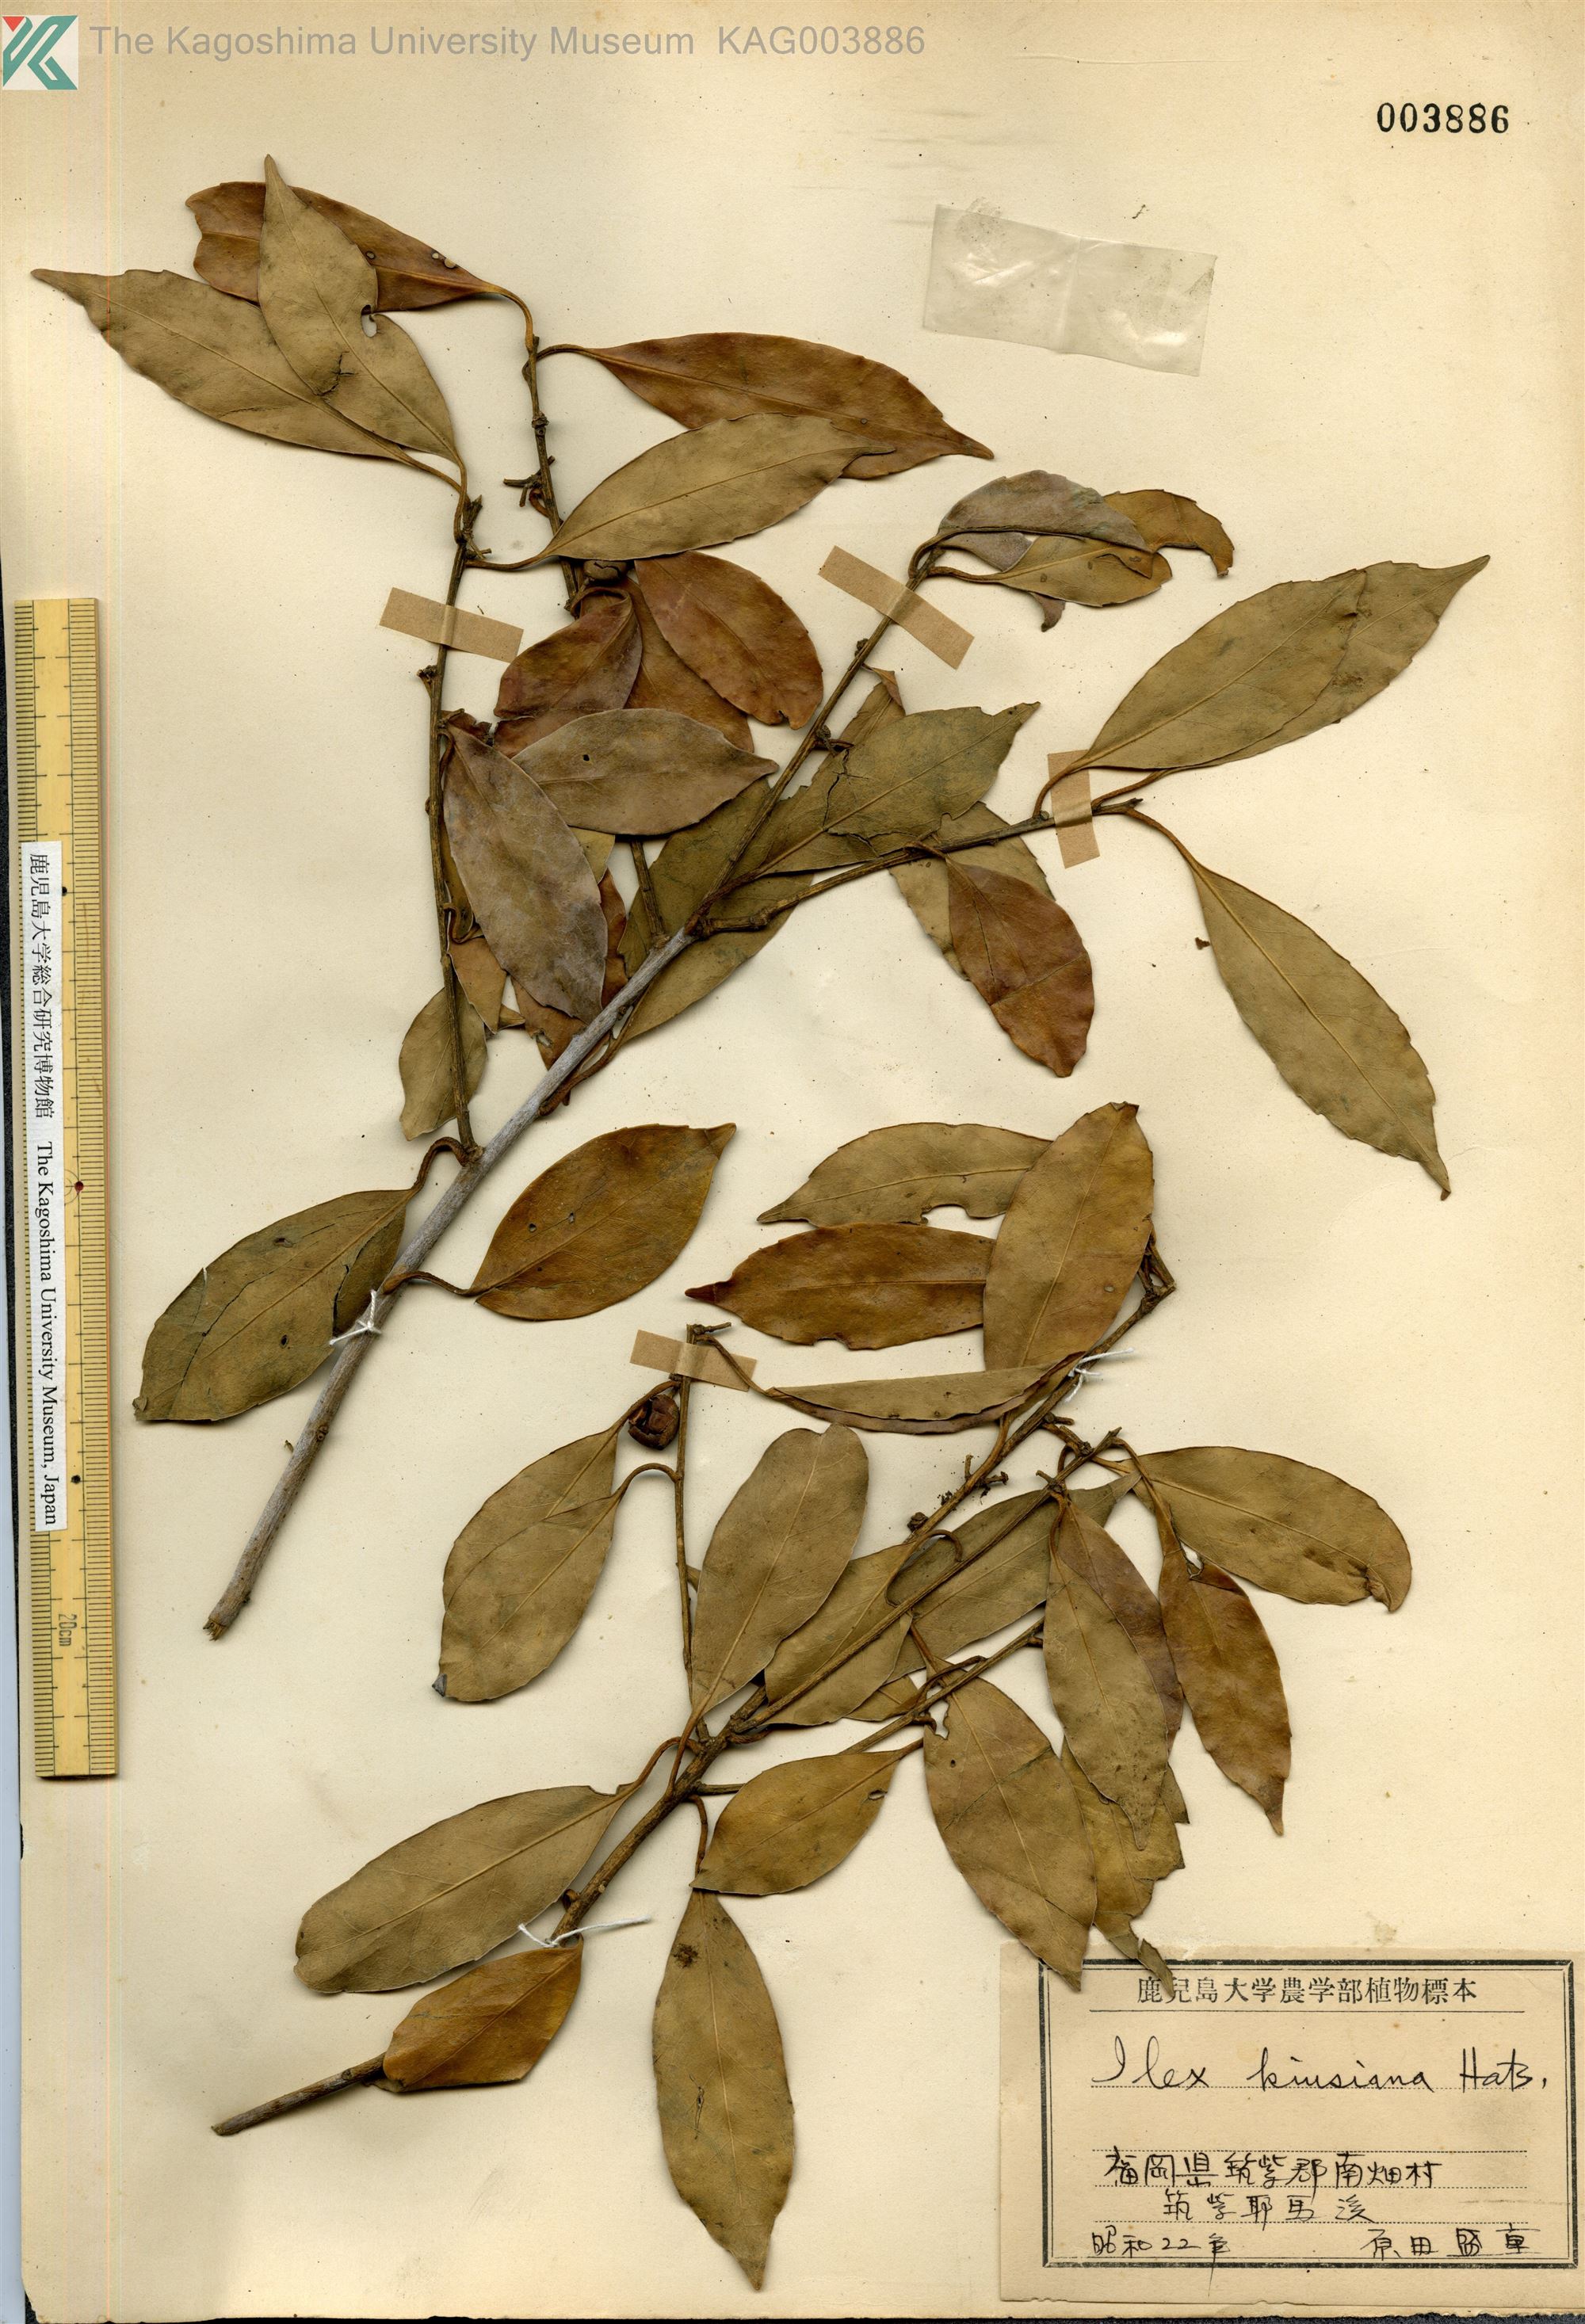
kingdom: Plantae
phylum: Tracheophyta
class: Magnoliopsida
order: Aquifoliales
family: Aquifoliaceae
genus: Ilex
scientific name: Ilex kiusiana
